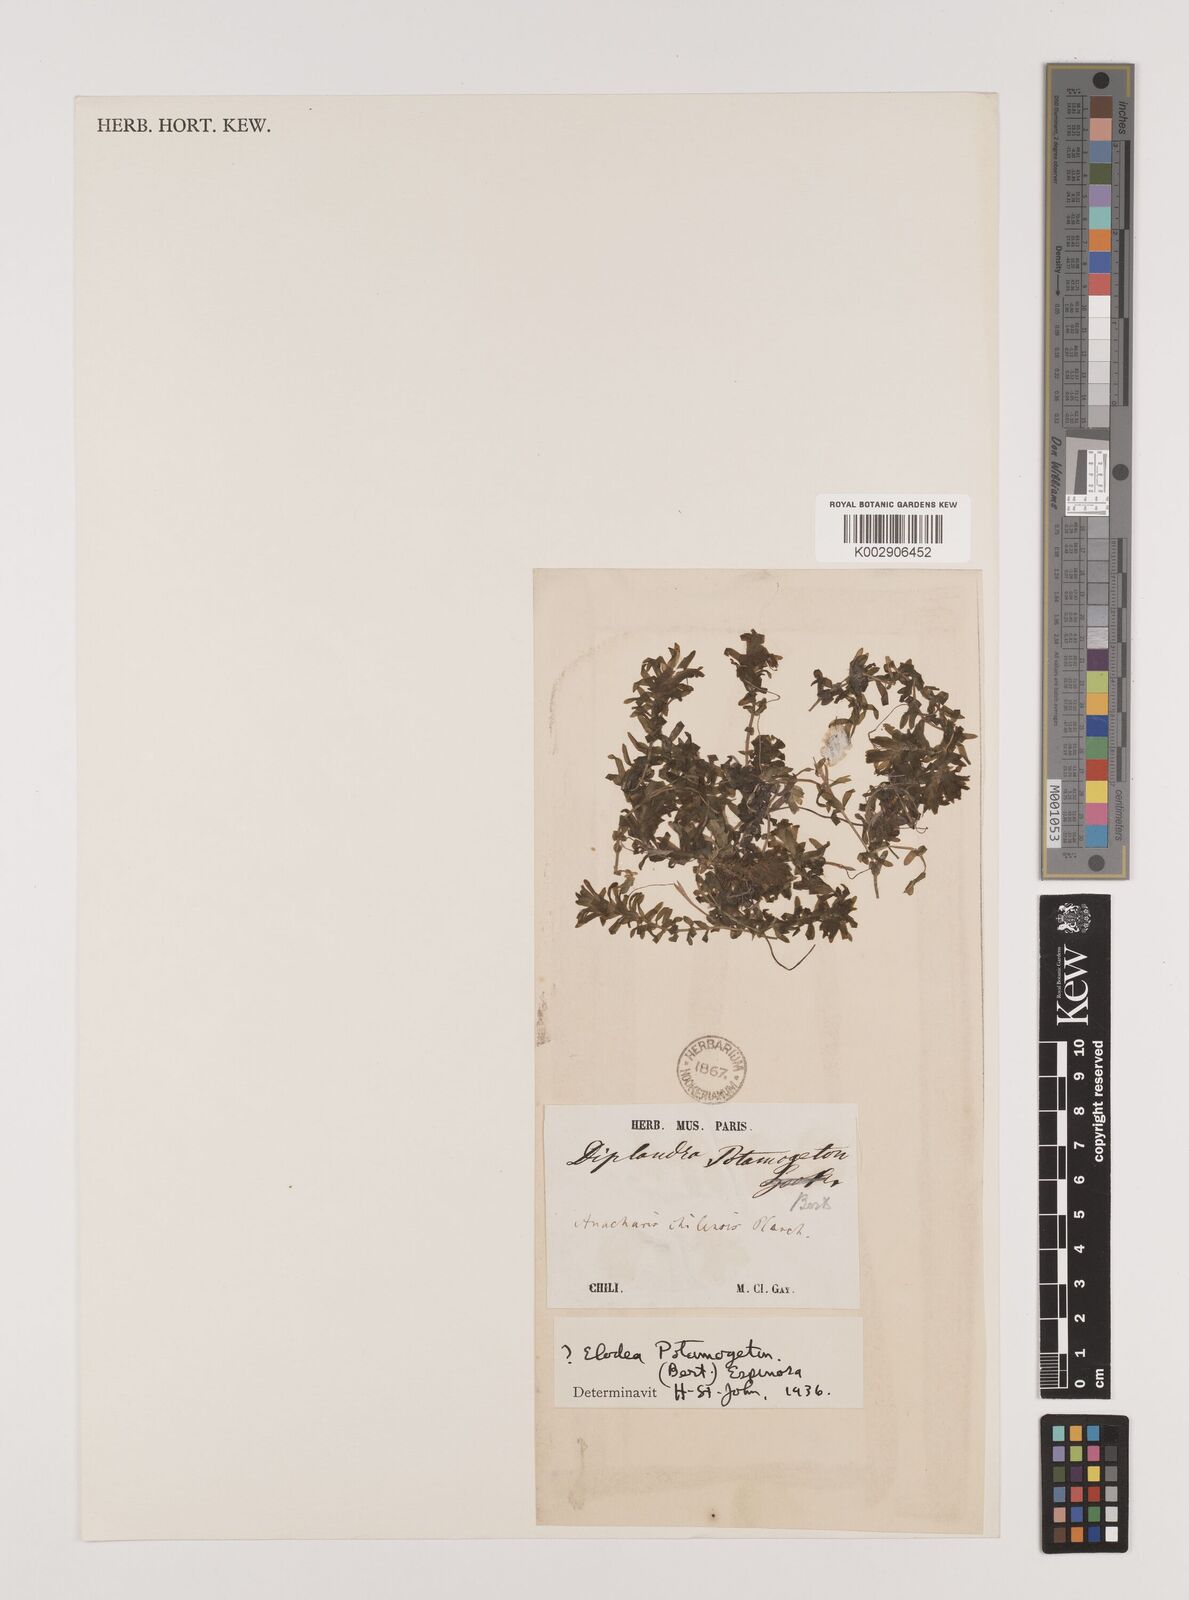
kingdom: Plantae
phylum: Tracheophyta
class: Liliopsida
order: Alismatales
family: Hydrocharitaceae
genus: Elodea
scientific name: Elodea potamogeton
